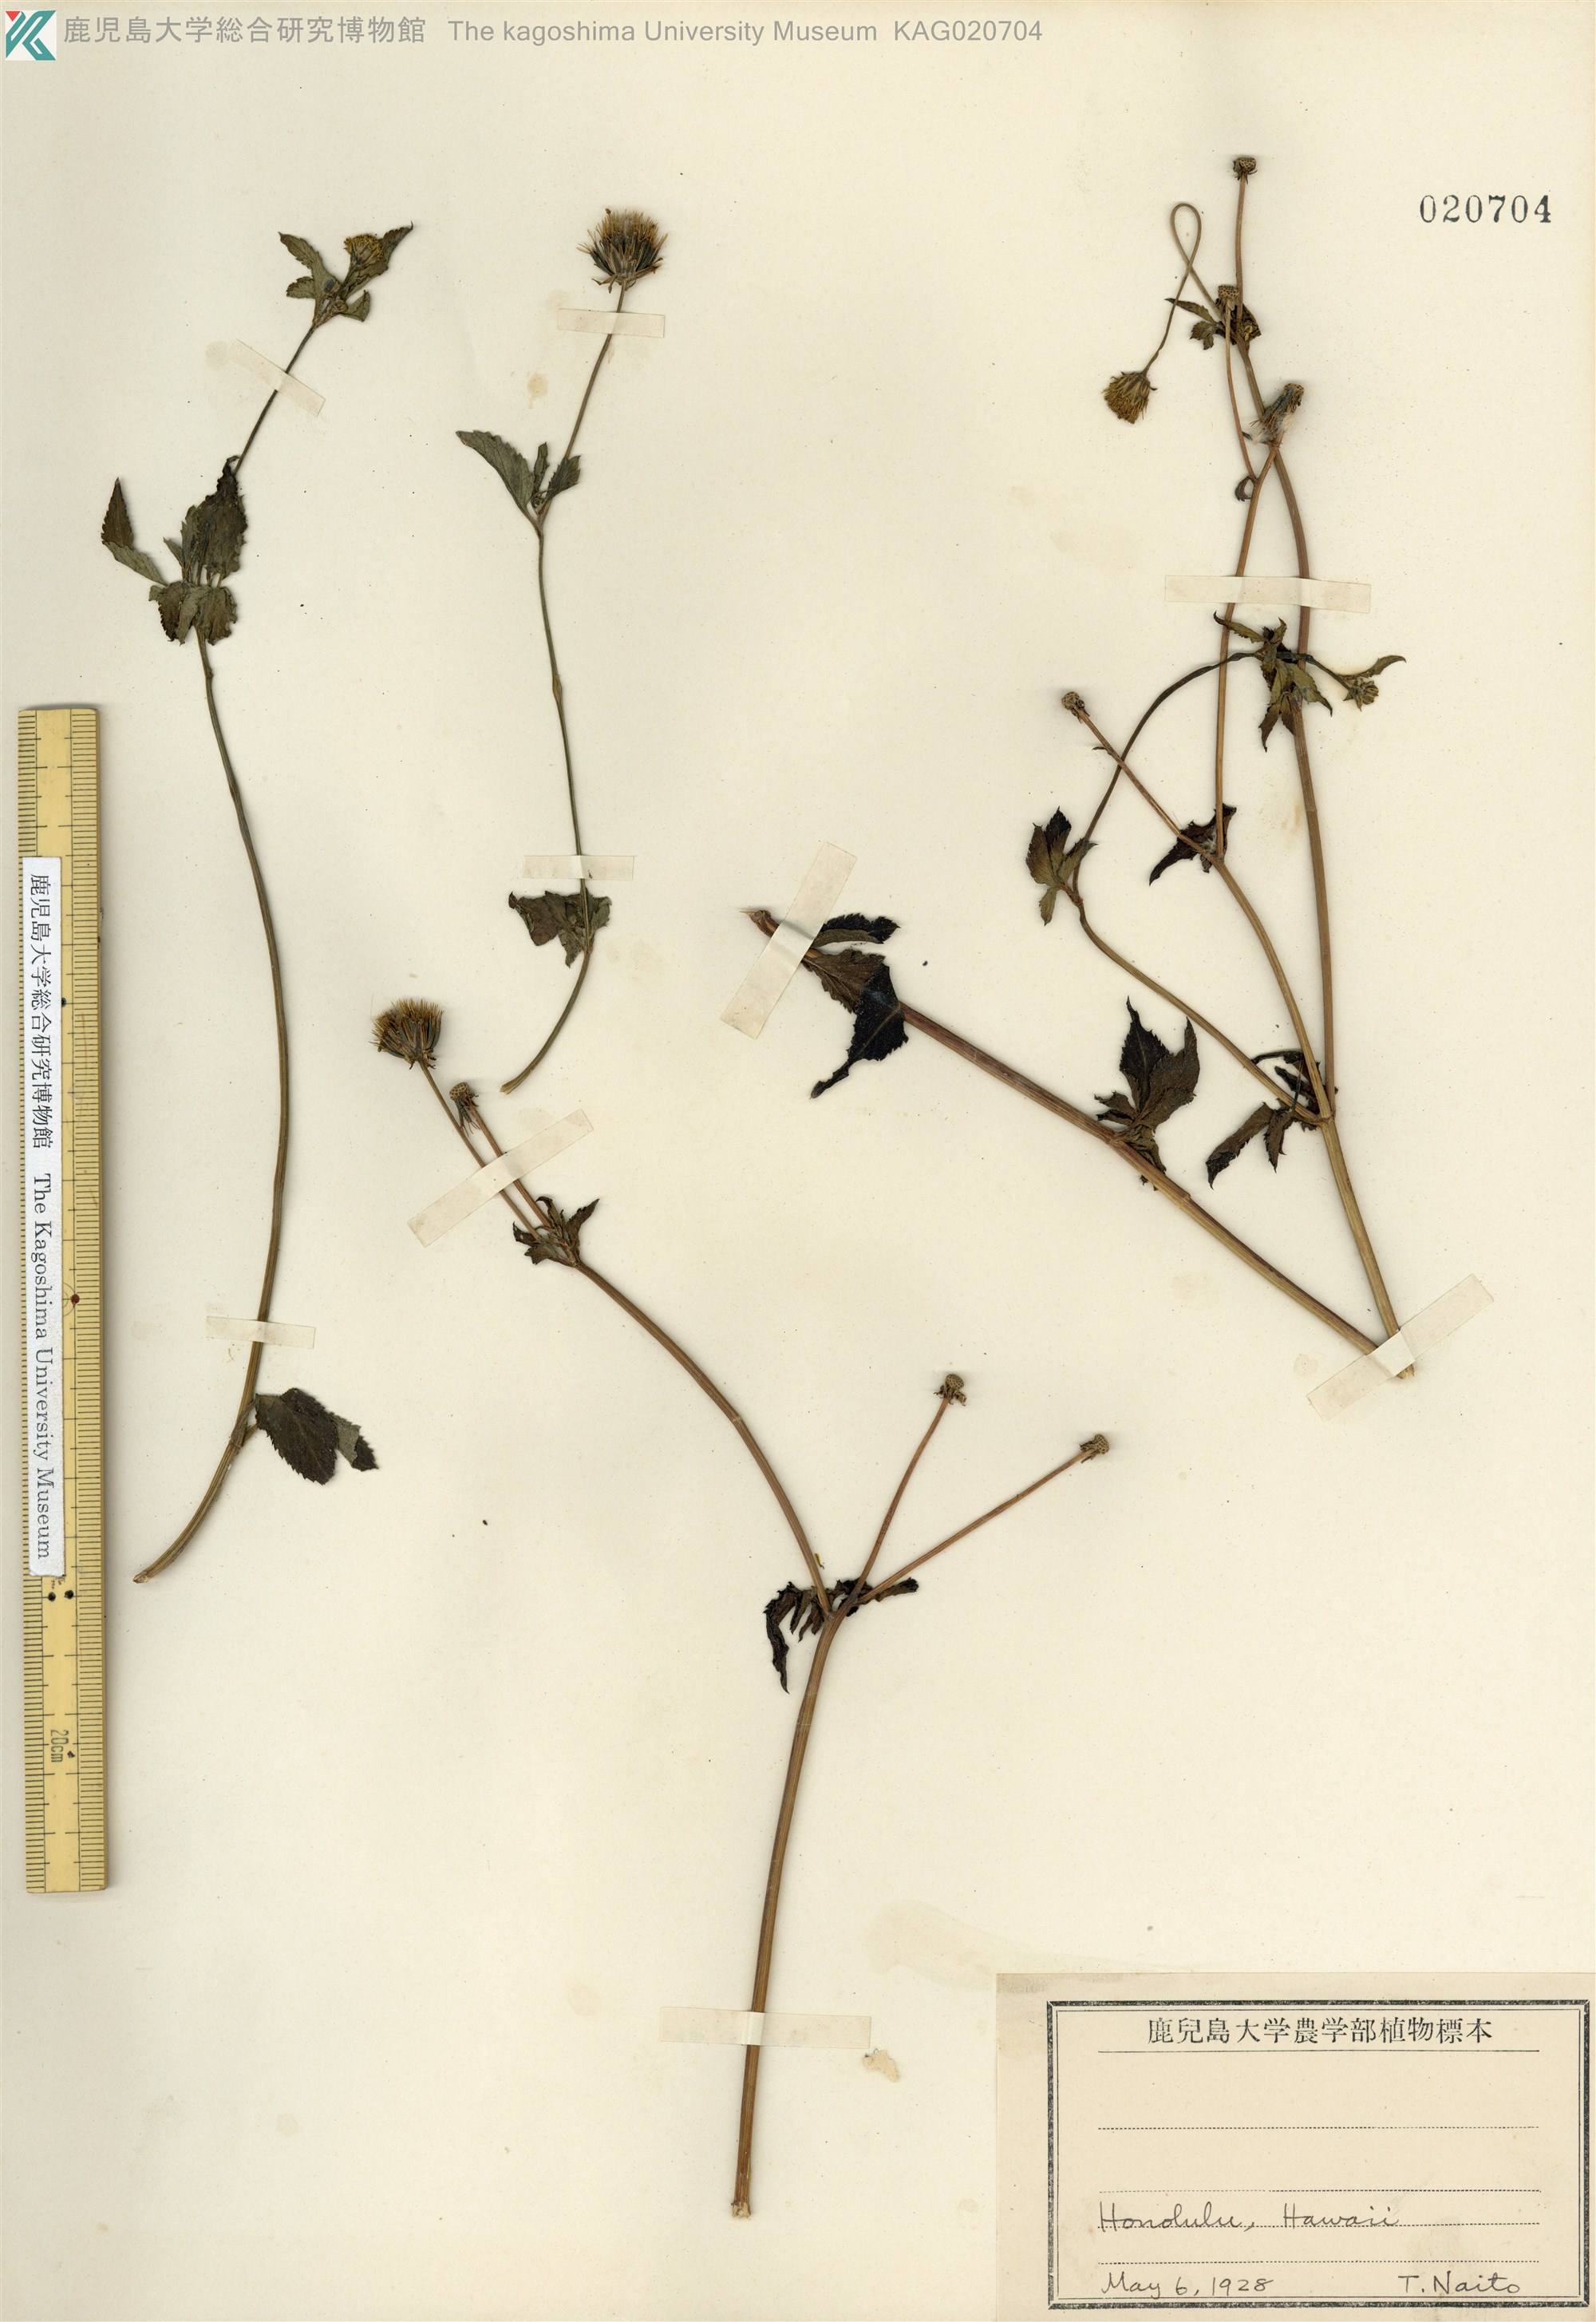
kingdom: Plantae
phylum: Tracheophyta
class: Magnoliopsida
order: Asterales
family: Asteraceae
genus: Bidens
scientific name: Bidens pilosa
